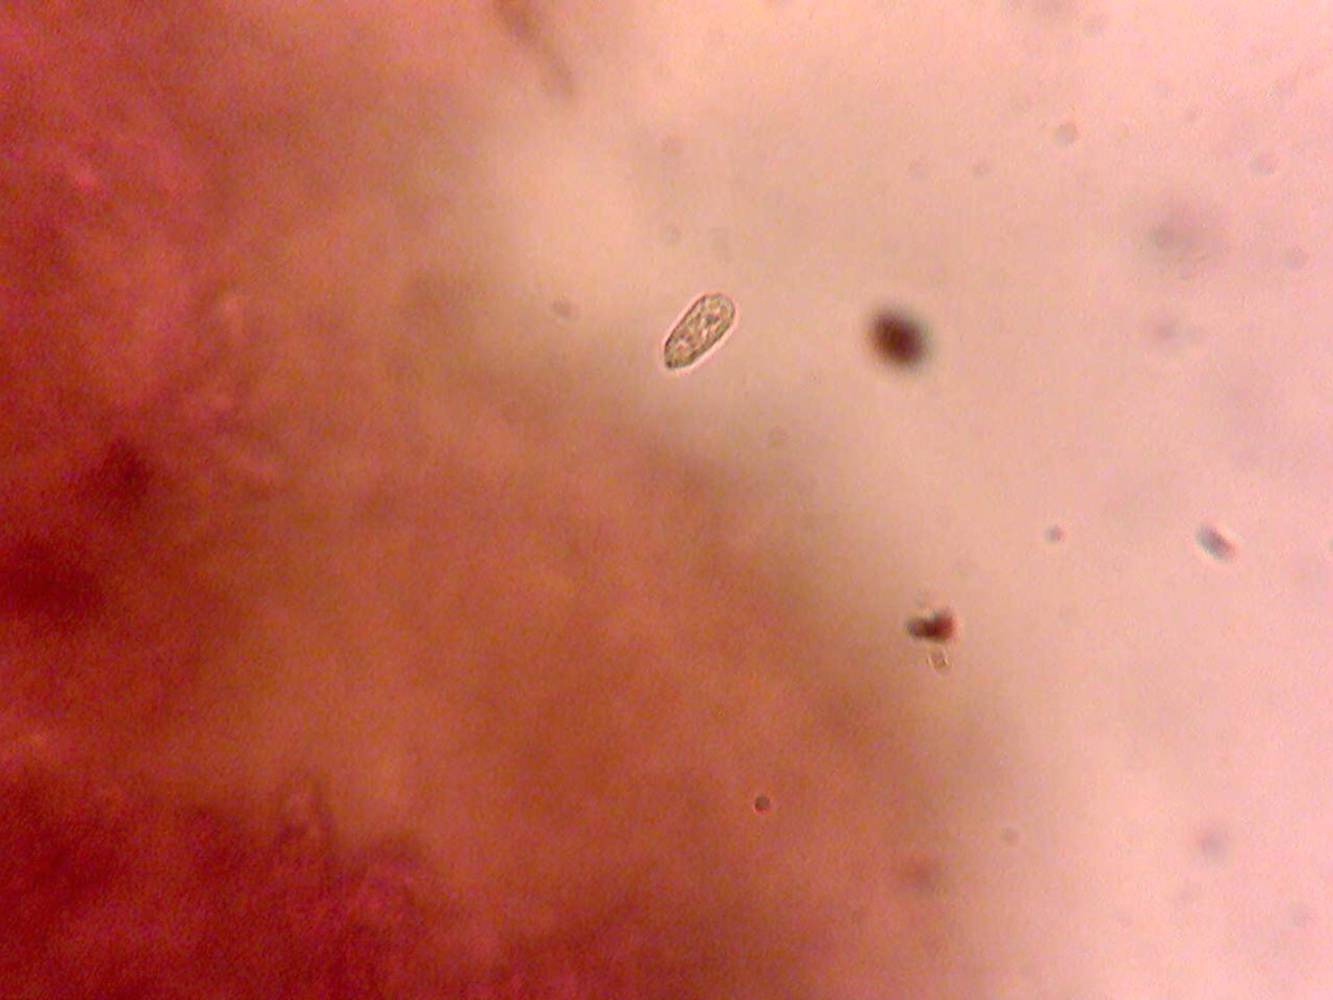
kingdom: Fungi
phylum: Basidiomycota
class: Agaricomycetes
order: Agaricales
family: Mycenaceae
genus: Mycena
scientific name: Mycena citrinomarginata
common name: gulægget huesvamp
